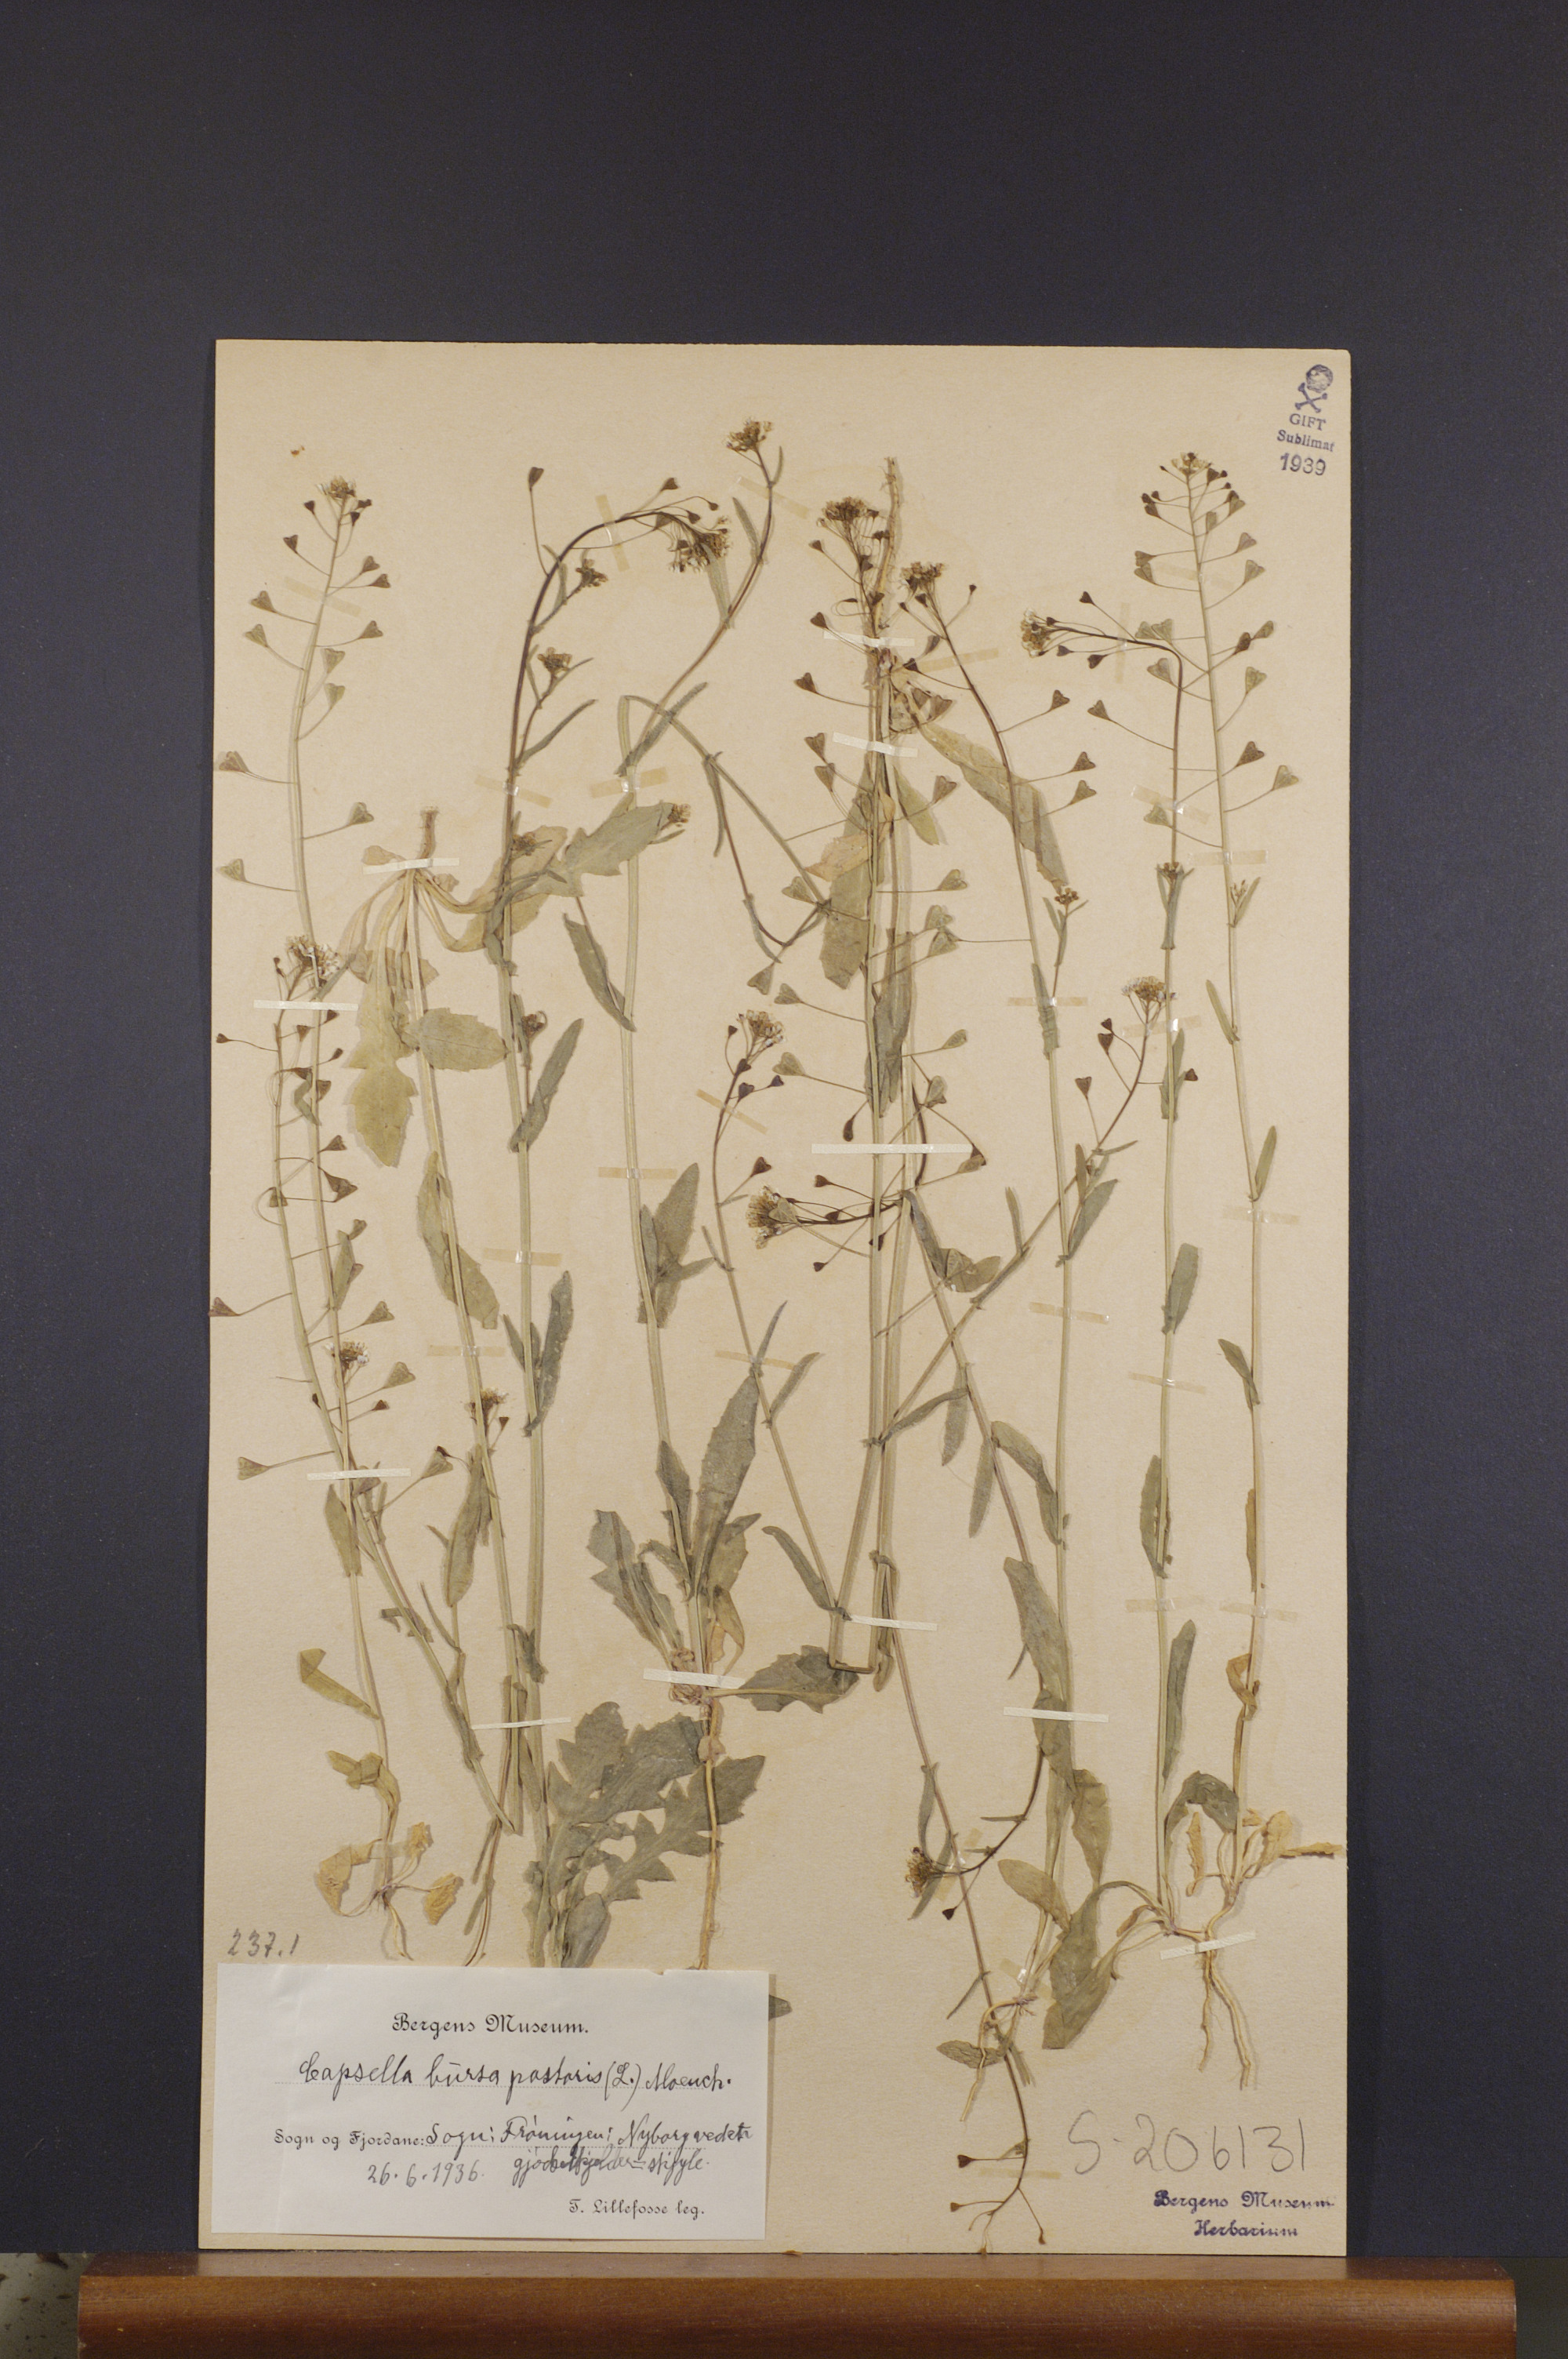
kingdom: Plantae
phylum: Tracheophyta
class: Magnoliopsida
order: Brassicales
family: Brassicaceae
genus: Capsella
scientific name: Capsella bursa-pastoris
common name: Shepherd's purse
